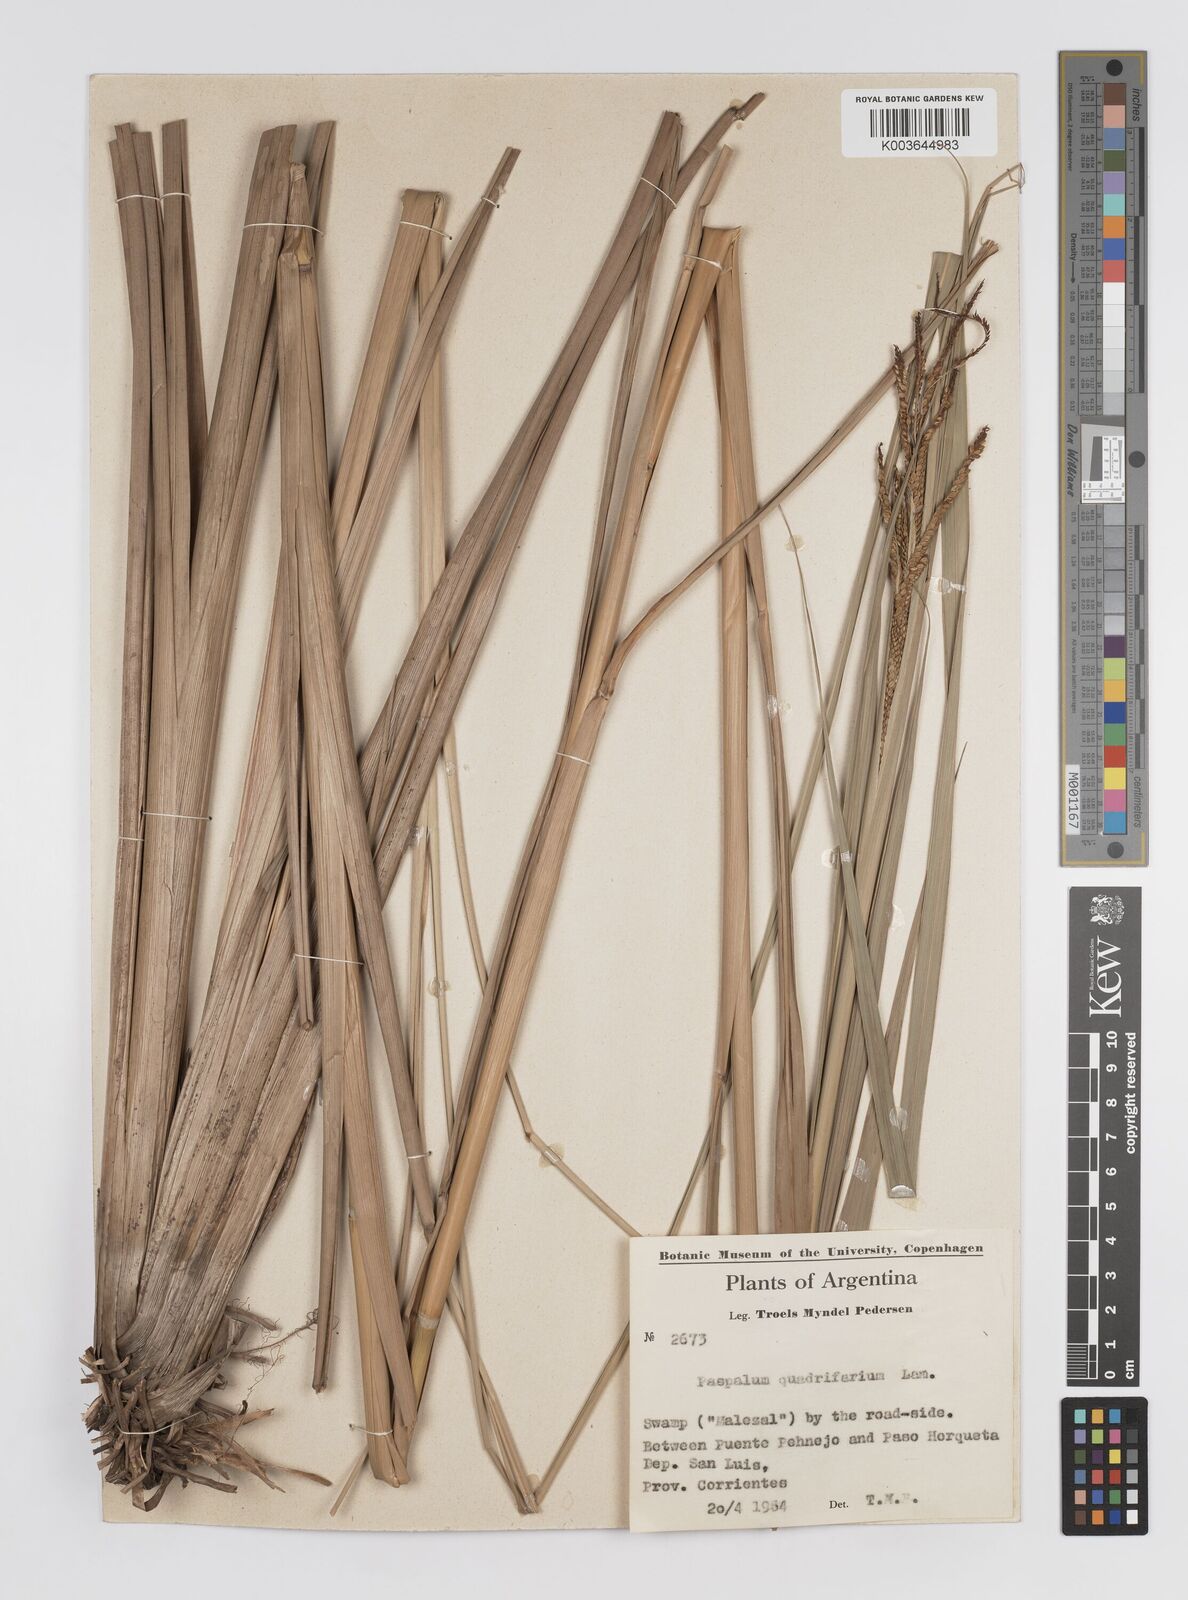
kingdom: Plantae
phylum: Tracheophyta
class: Liliopsida
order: Poales
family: Poaceae
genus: Paspalum
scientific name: Paspalum quadrifarium
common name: Tussock paspalum
